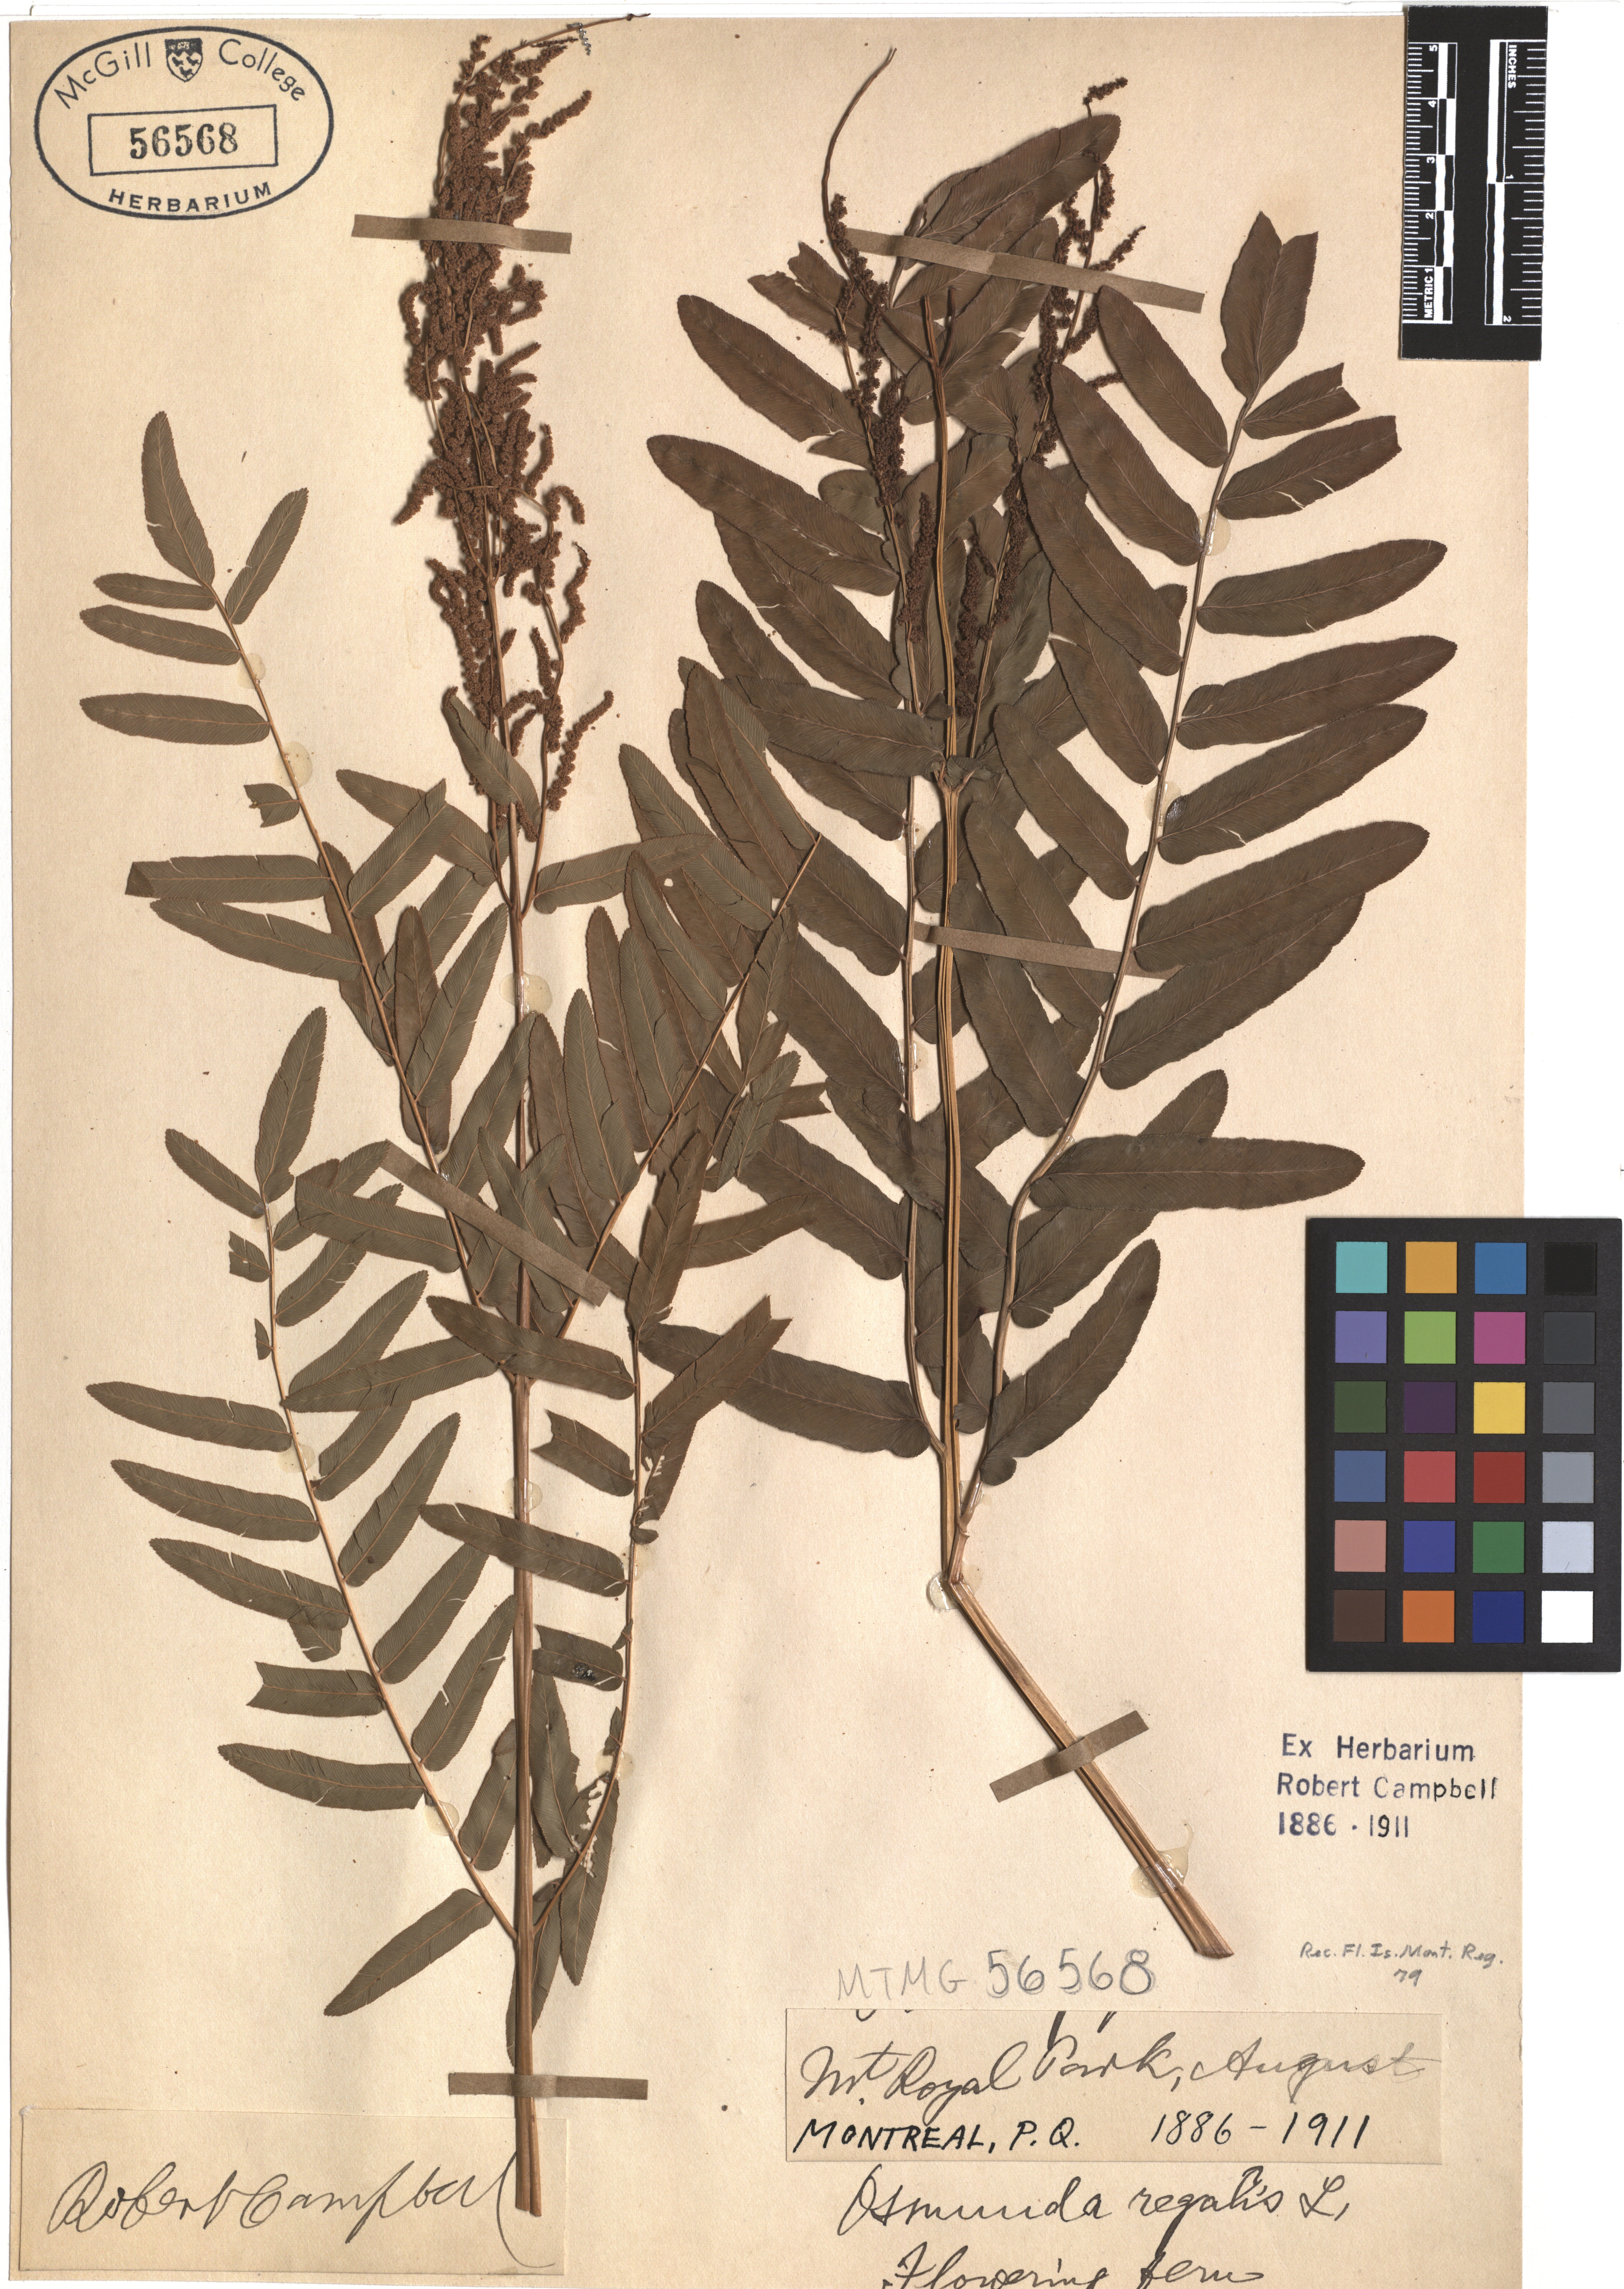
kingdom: Plantae
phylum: Tracheophyta
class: Polypodiopsida
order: Osmundales
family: Osmundaceae
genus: Osmunda
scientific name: Osmunda regalis
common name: Royal fern
